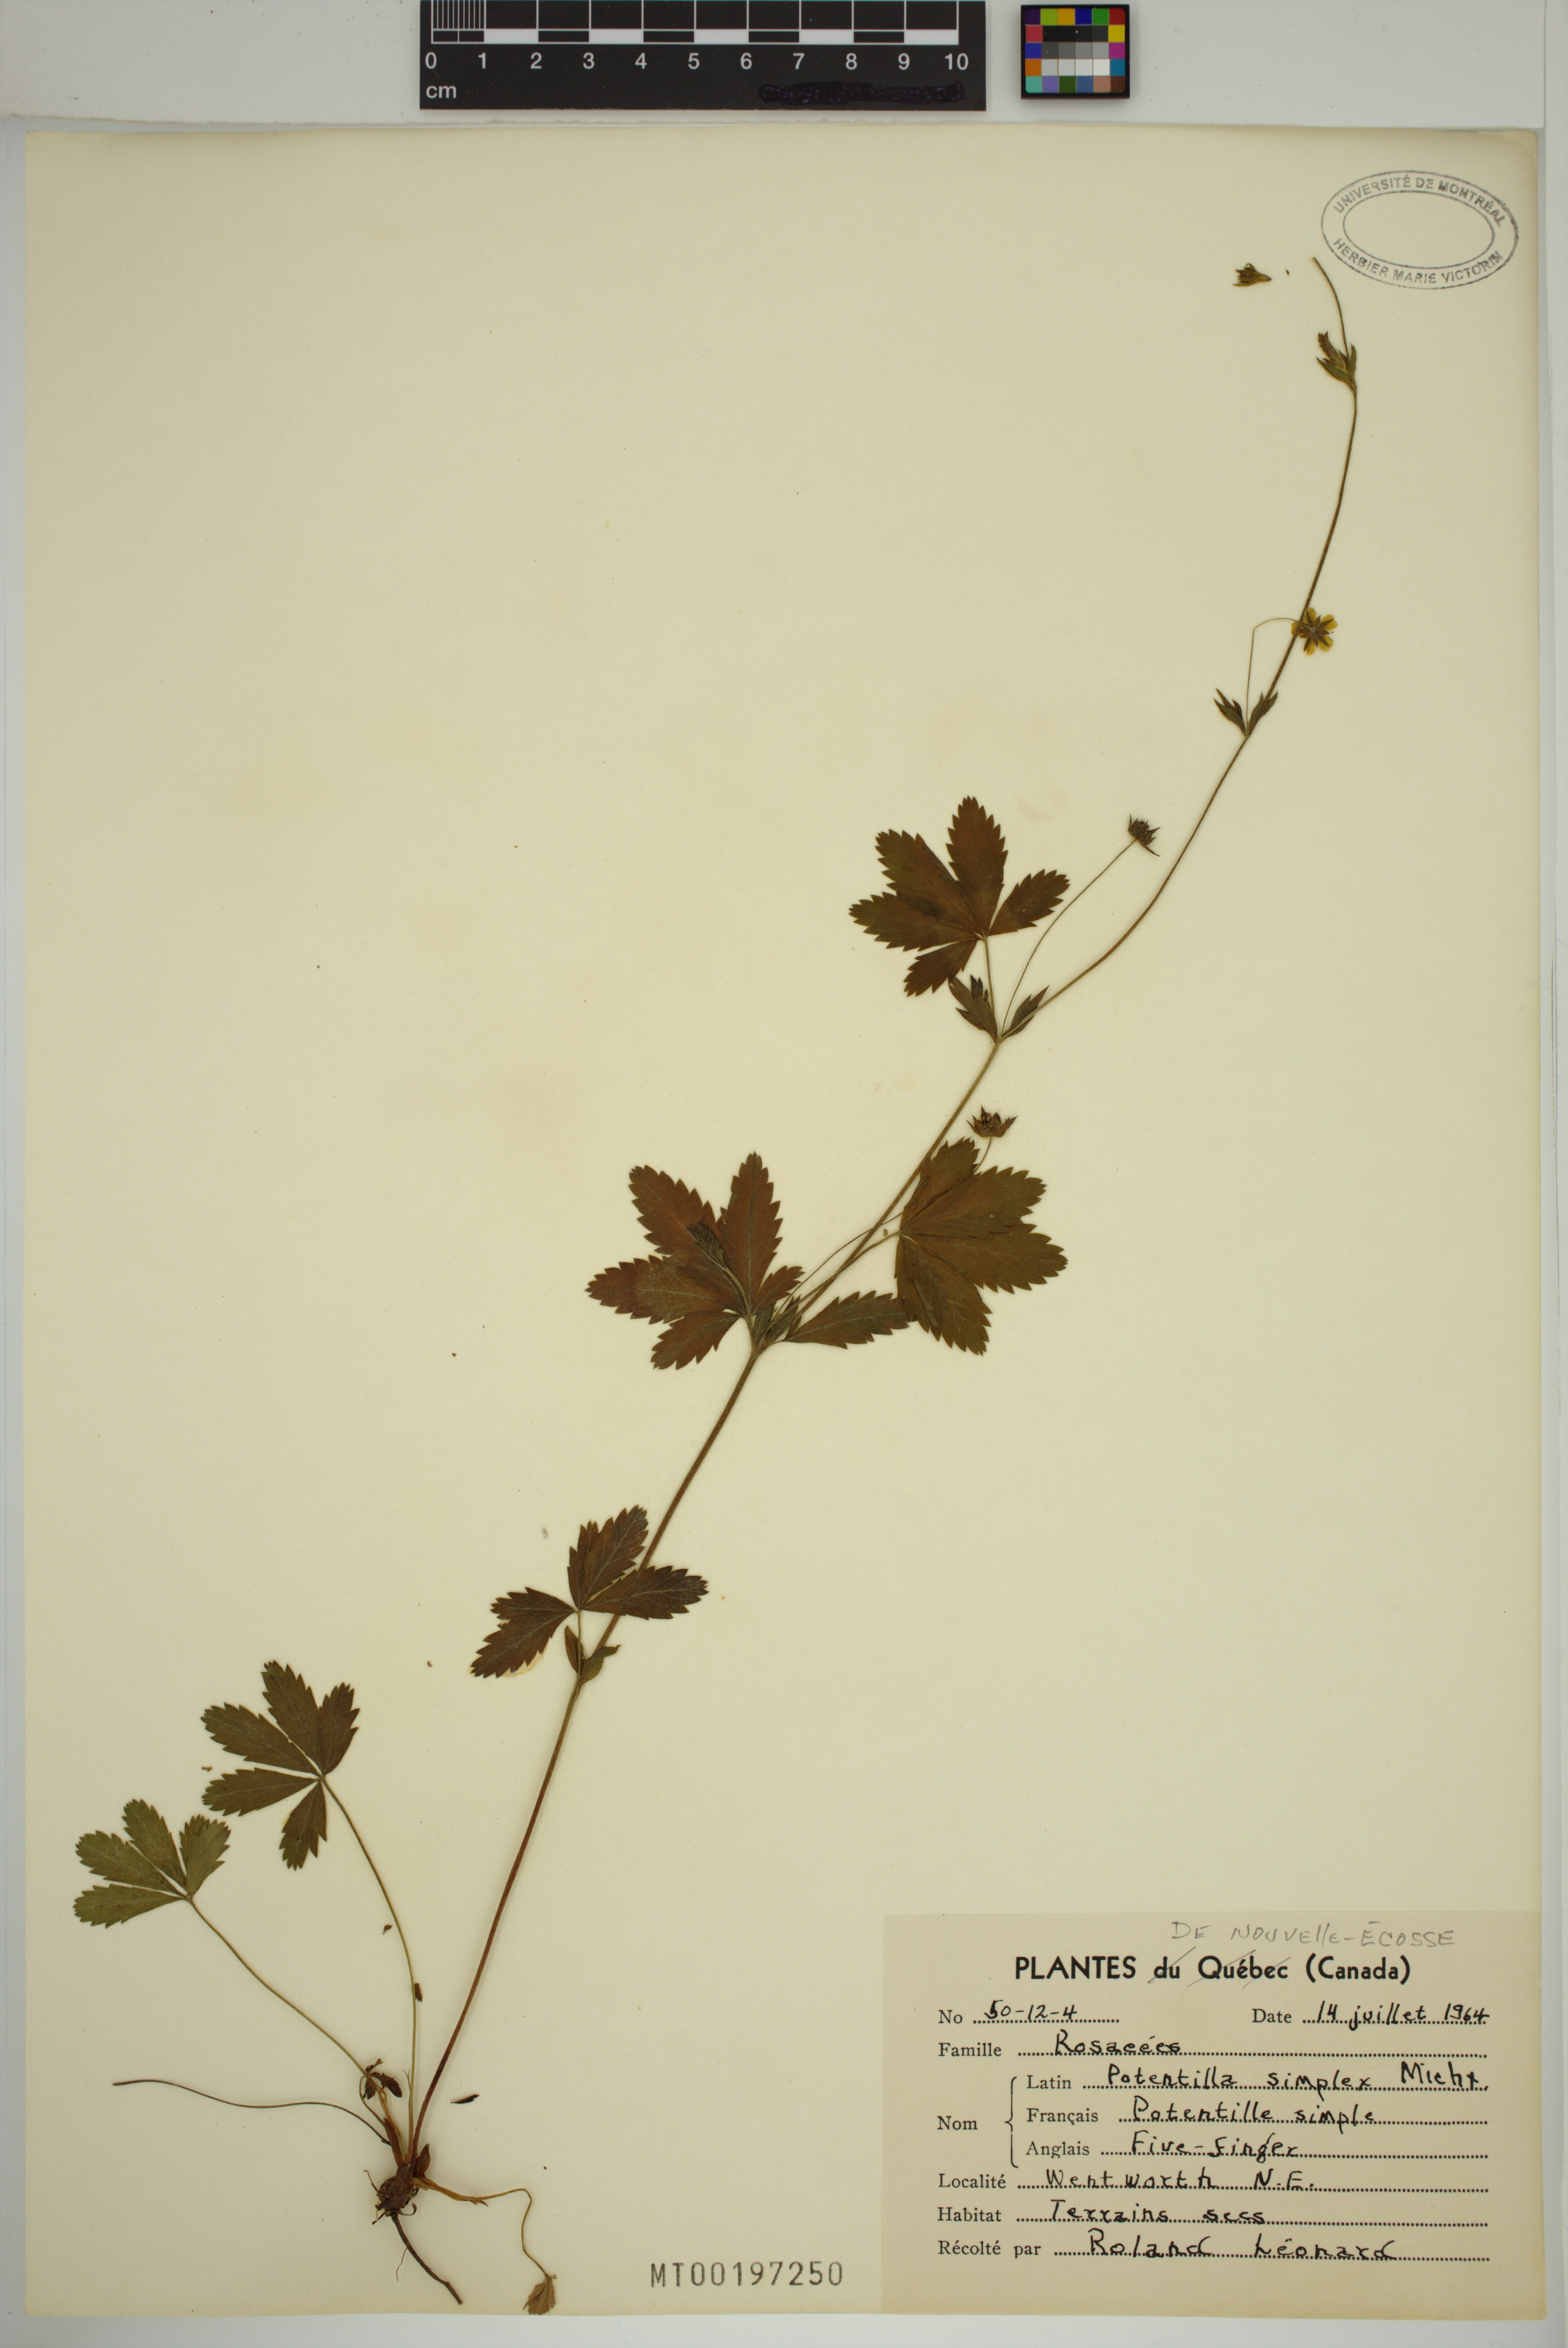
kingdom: Plantae
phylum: Tracheophyta
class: Magnoliopsida
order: Rosales
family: Rosaceae
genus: Potentilla
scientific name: Potentilla simplex
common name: Old field cinquefoil
